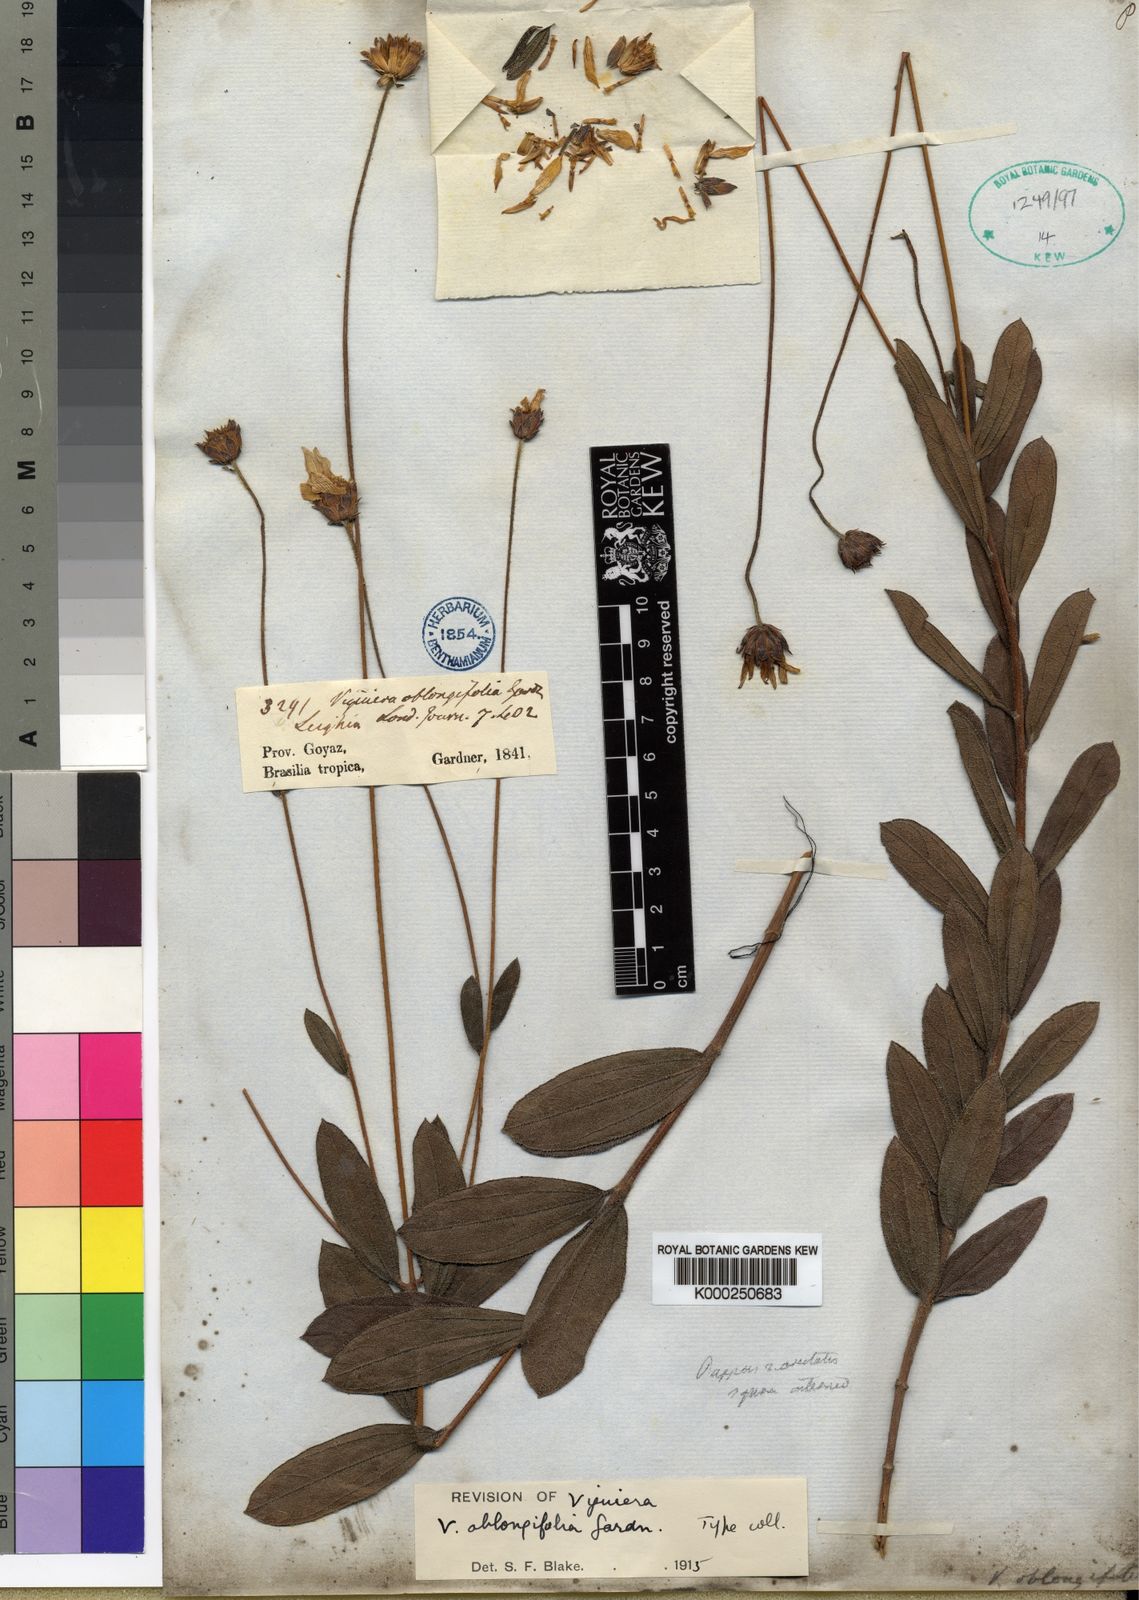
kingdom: Plantae
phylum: Tracheophyta
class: Magnoliopsida
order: Asterales
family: Asteraceae
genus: Aldama
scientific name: Aldama oblongifolia
